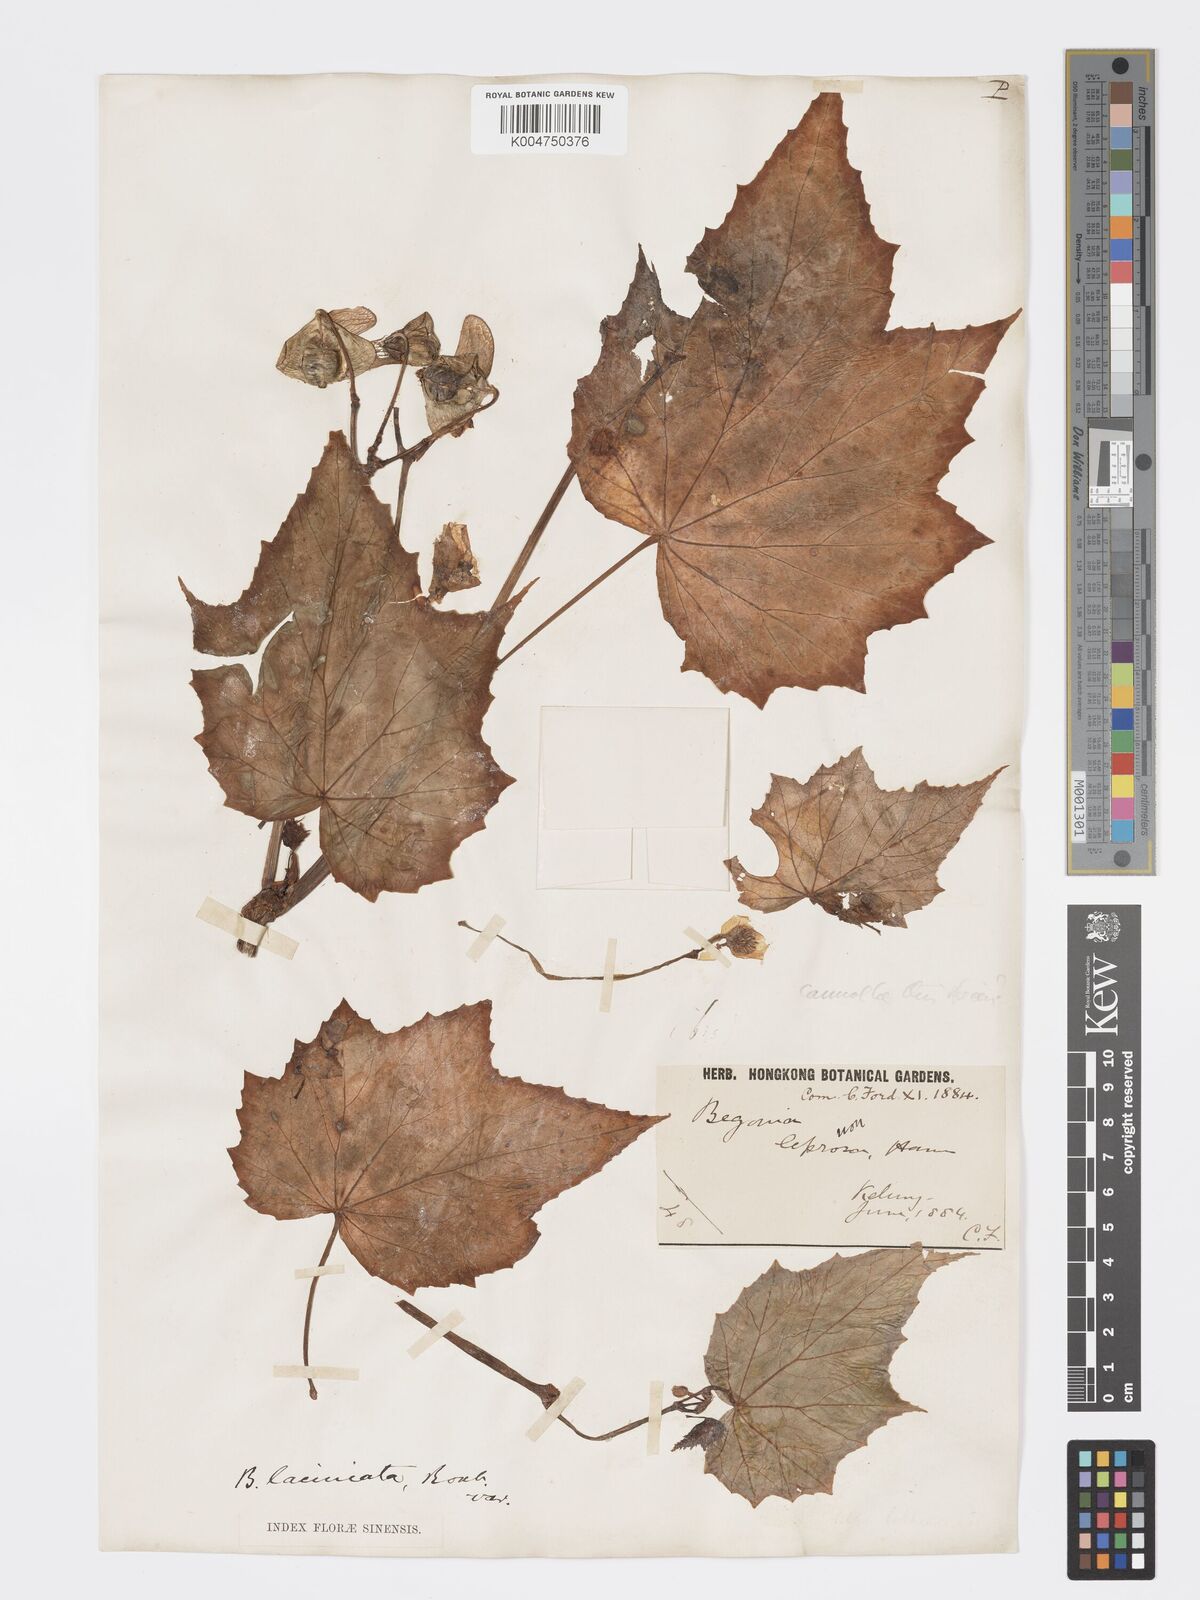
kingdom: Plantae
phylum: Tracheophyta
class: Magnoliopsida
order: Cucurbitales
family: Begoniaceae
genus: Begonia
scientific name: Begonia palmata
